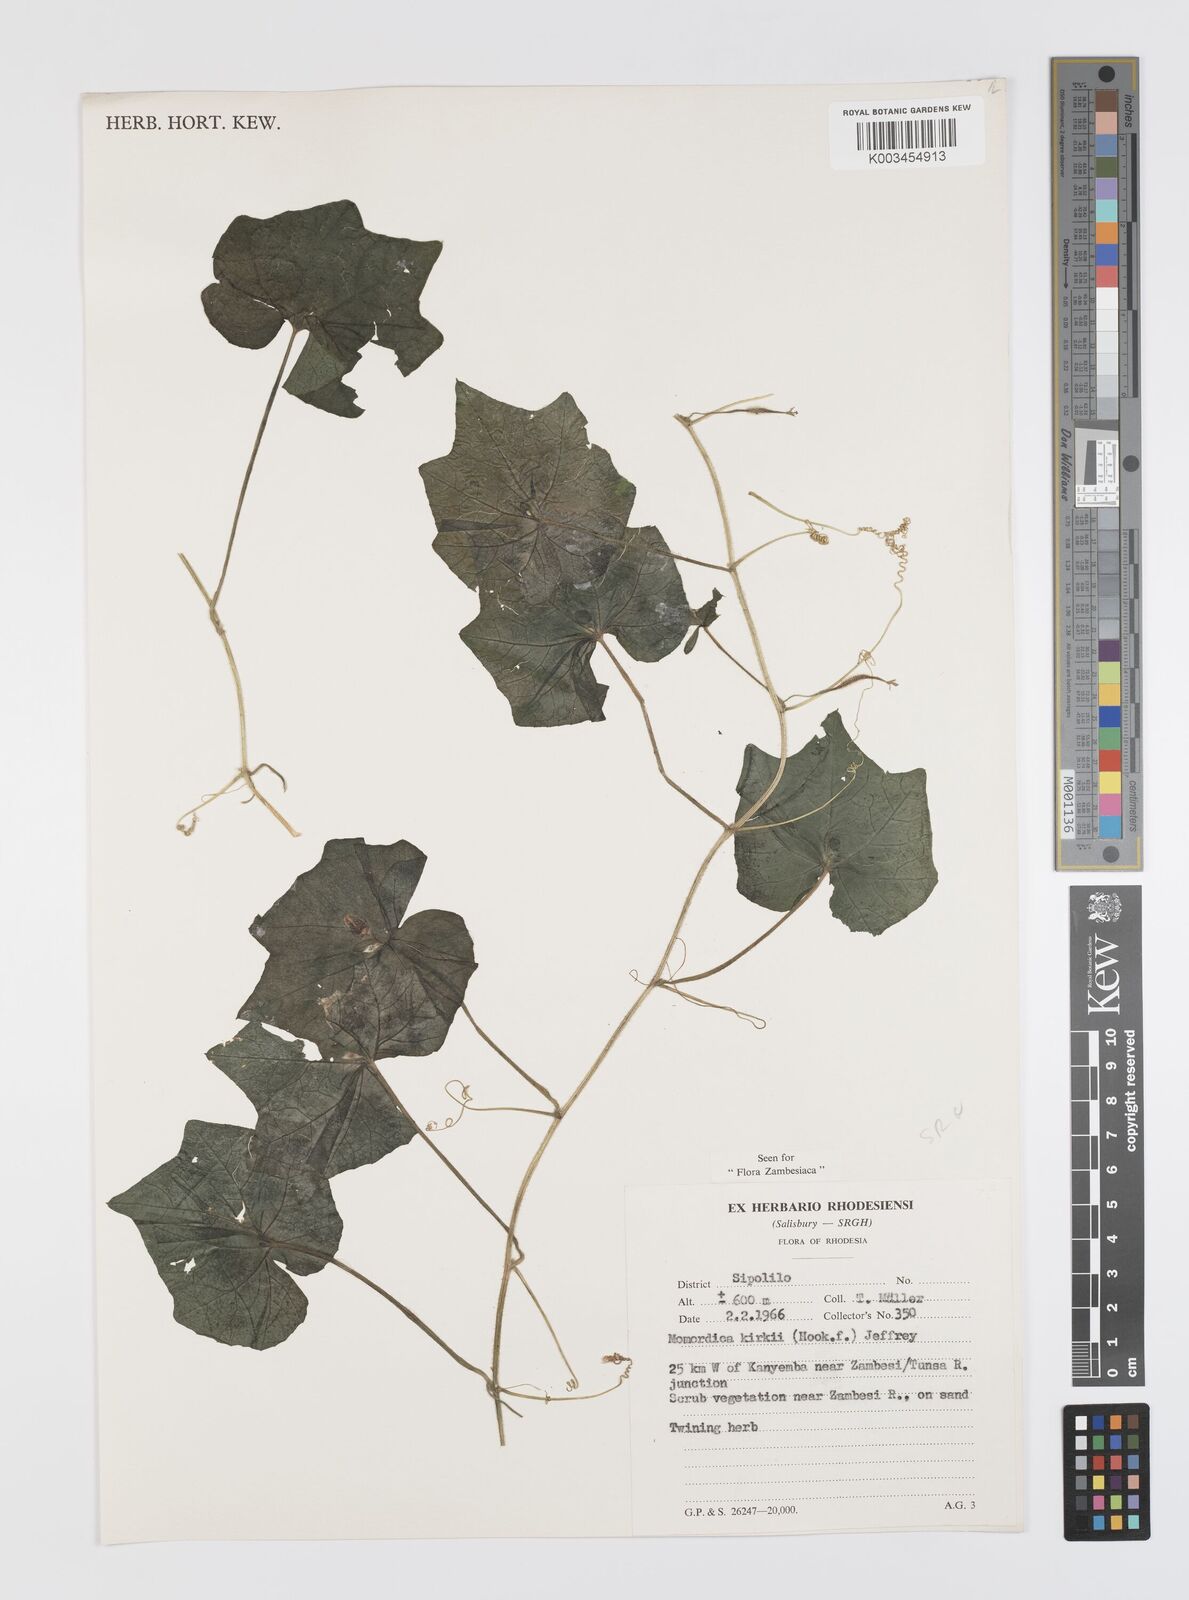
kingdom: Plantae
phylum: Tracheophyta
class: Magnoliopsida
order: Cucurbitales
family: Cucurbitaceae
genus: Momordica
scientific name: Momordica kirkii
